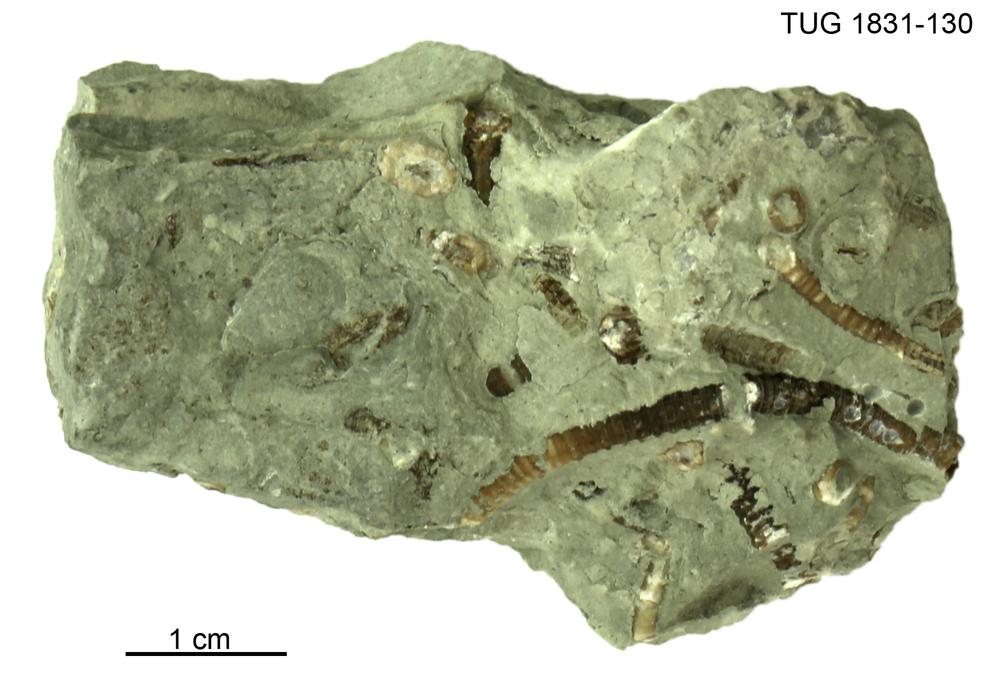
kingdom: Animalia
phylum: Echinodermata
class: Crinoidea
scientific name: Crinoidea
